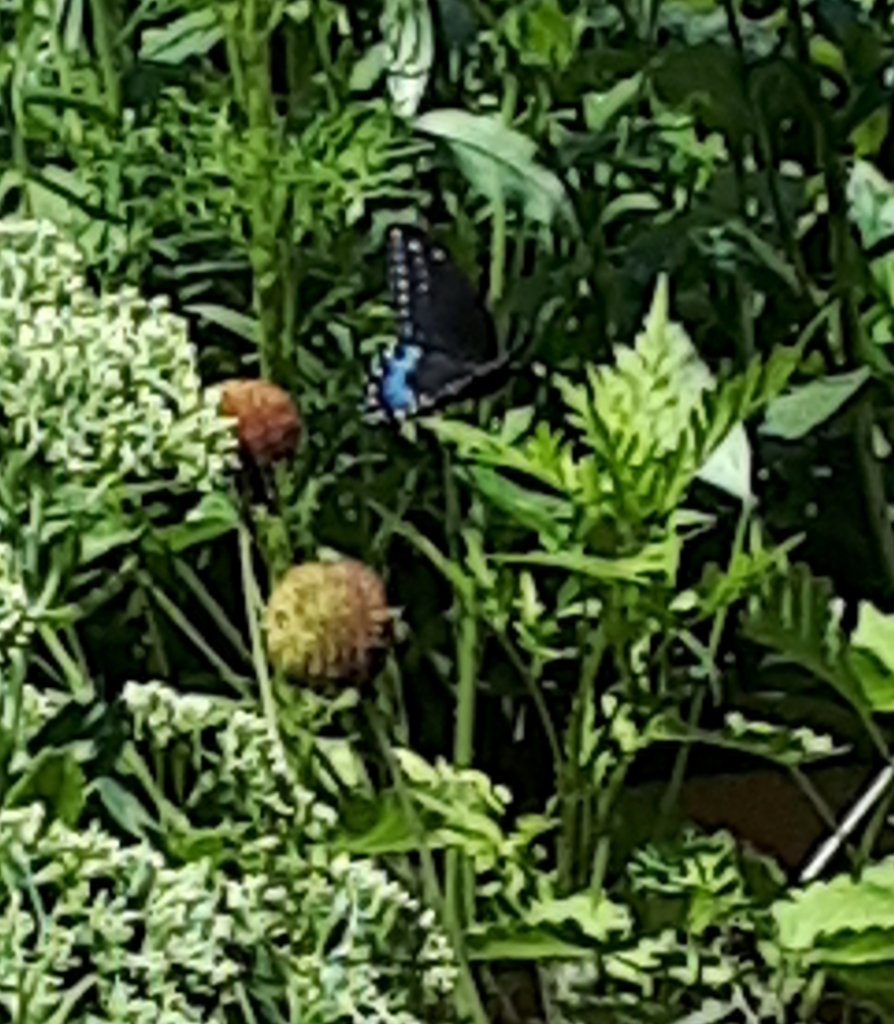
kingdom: Animalia
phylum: Arthropoda
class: Insecta
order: Lepidoptera
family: Papilionidae
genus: Papilio
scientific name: Papilio polyxenes
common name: Black Swallowtail
